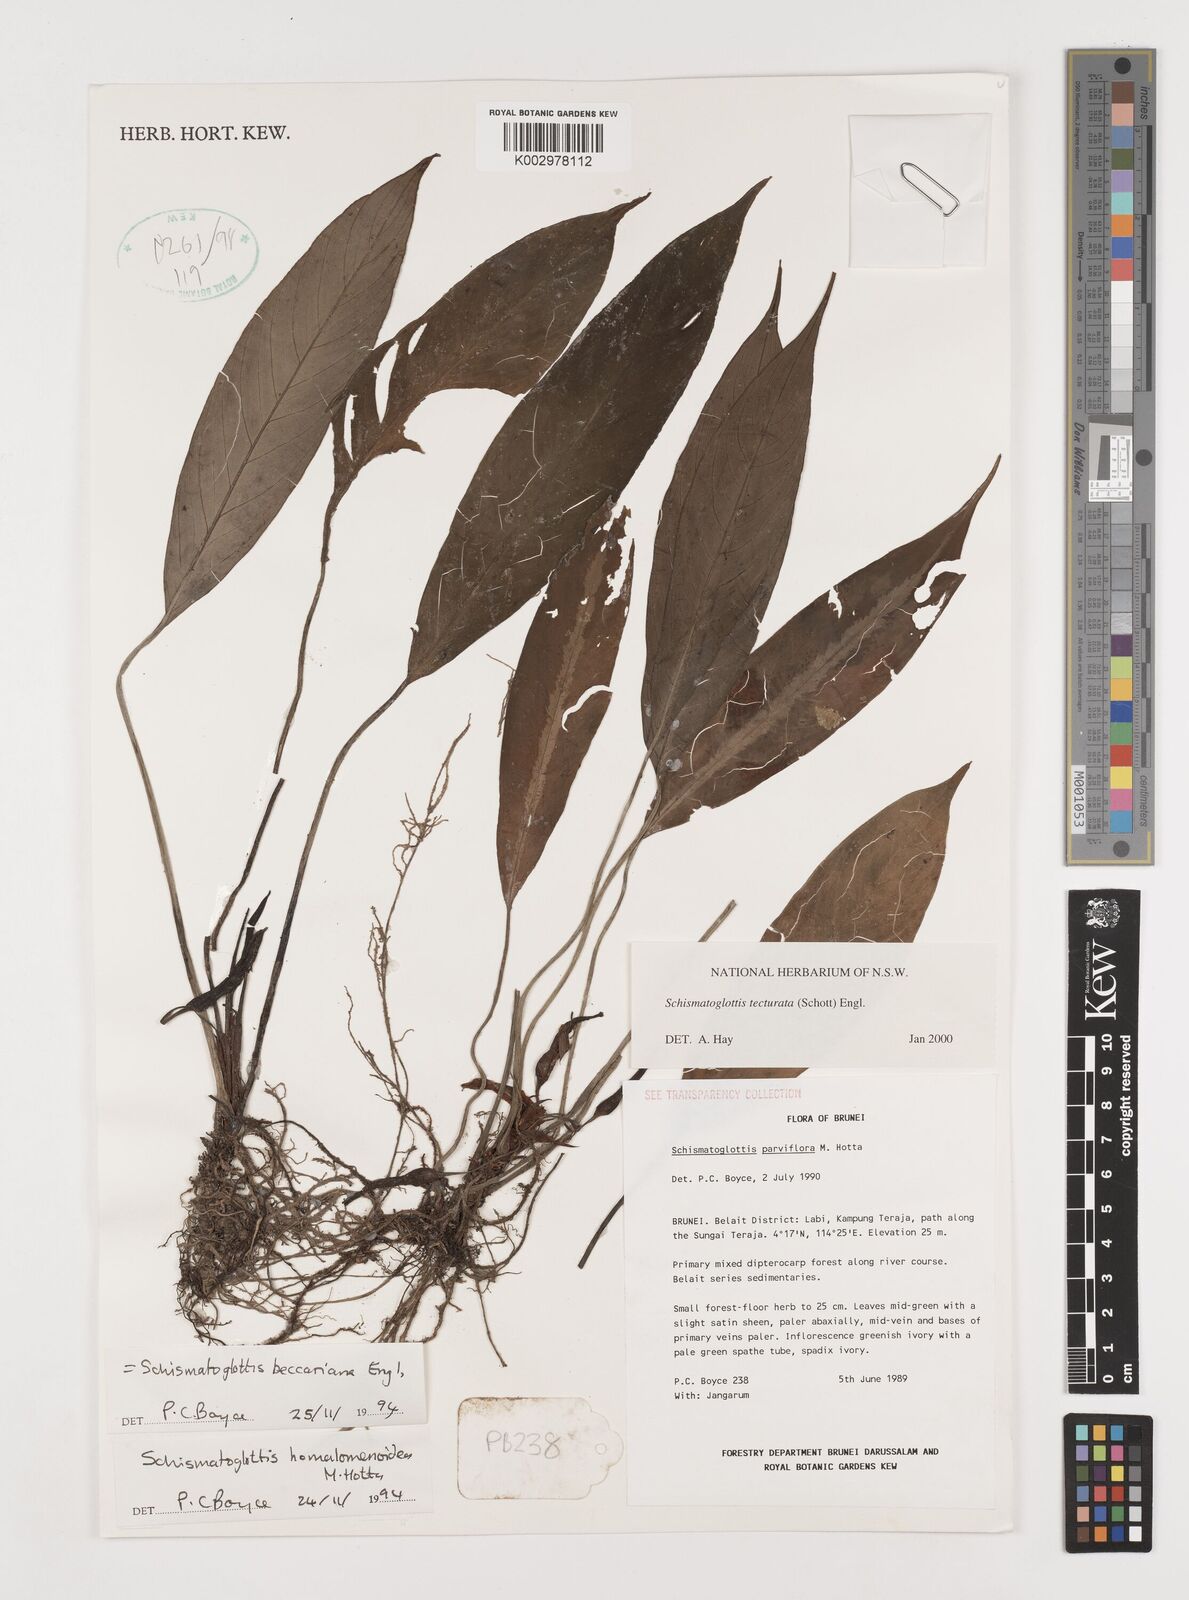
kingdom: Plantae
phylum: Tracheophyta
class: Liliopsida
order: Zingiberales
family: Costaceae
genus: Colobogynium
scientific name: Colobogynium variegatum
